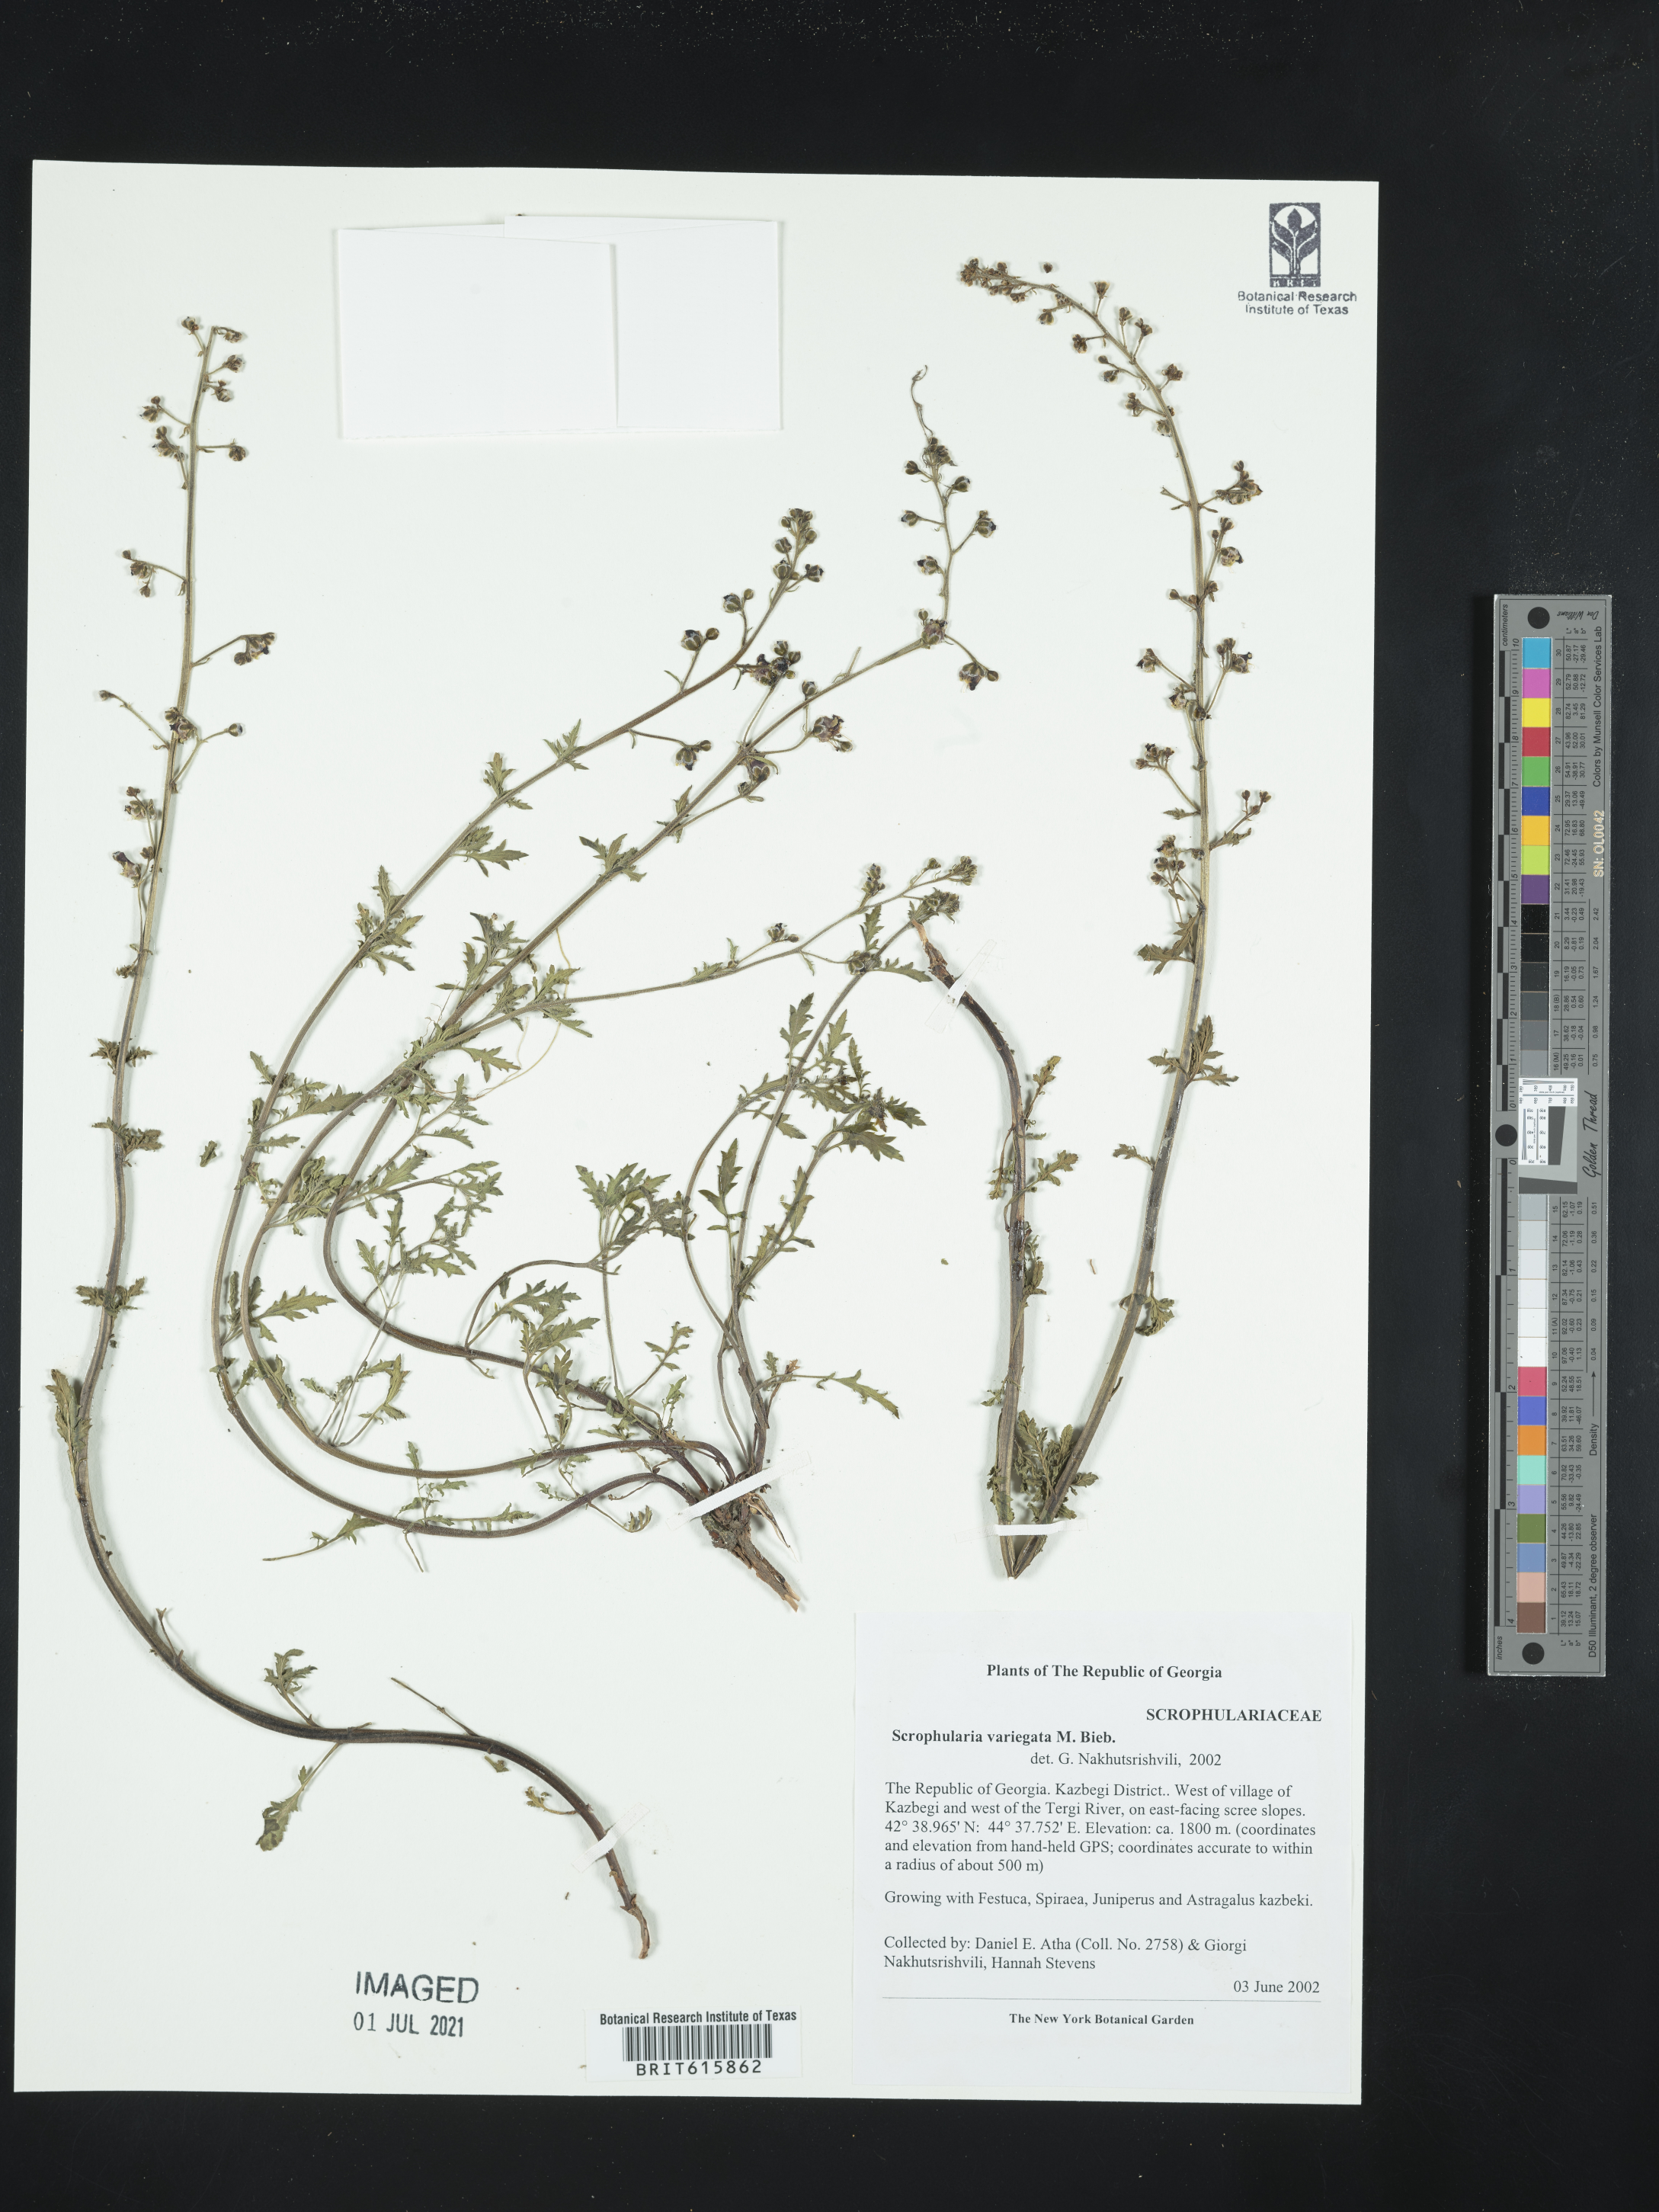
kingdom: Plantae
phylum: Tracheophyta
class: Magnoliopsida
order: Lamiales
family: Scrophulariaceae
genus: Scrophularia
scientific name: Scrophularia variegata
